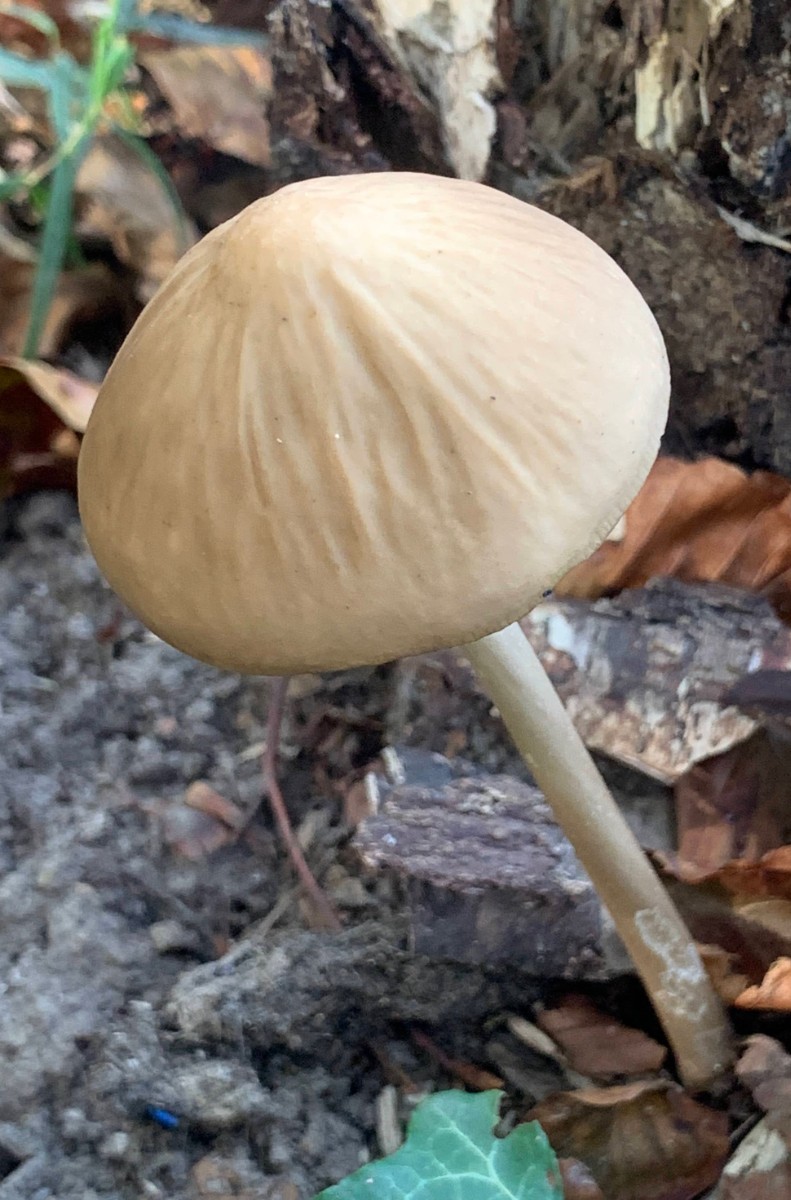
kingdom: Fungi
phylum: Basidiomycota
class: Agaricomycetes
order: Agaricales
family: Physalacriaceae
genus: Hymenopellis
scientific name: Hymenopellis radicata
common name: almindelig pælerodshat
